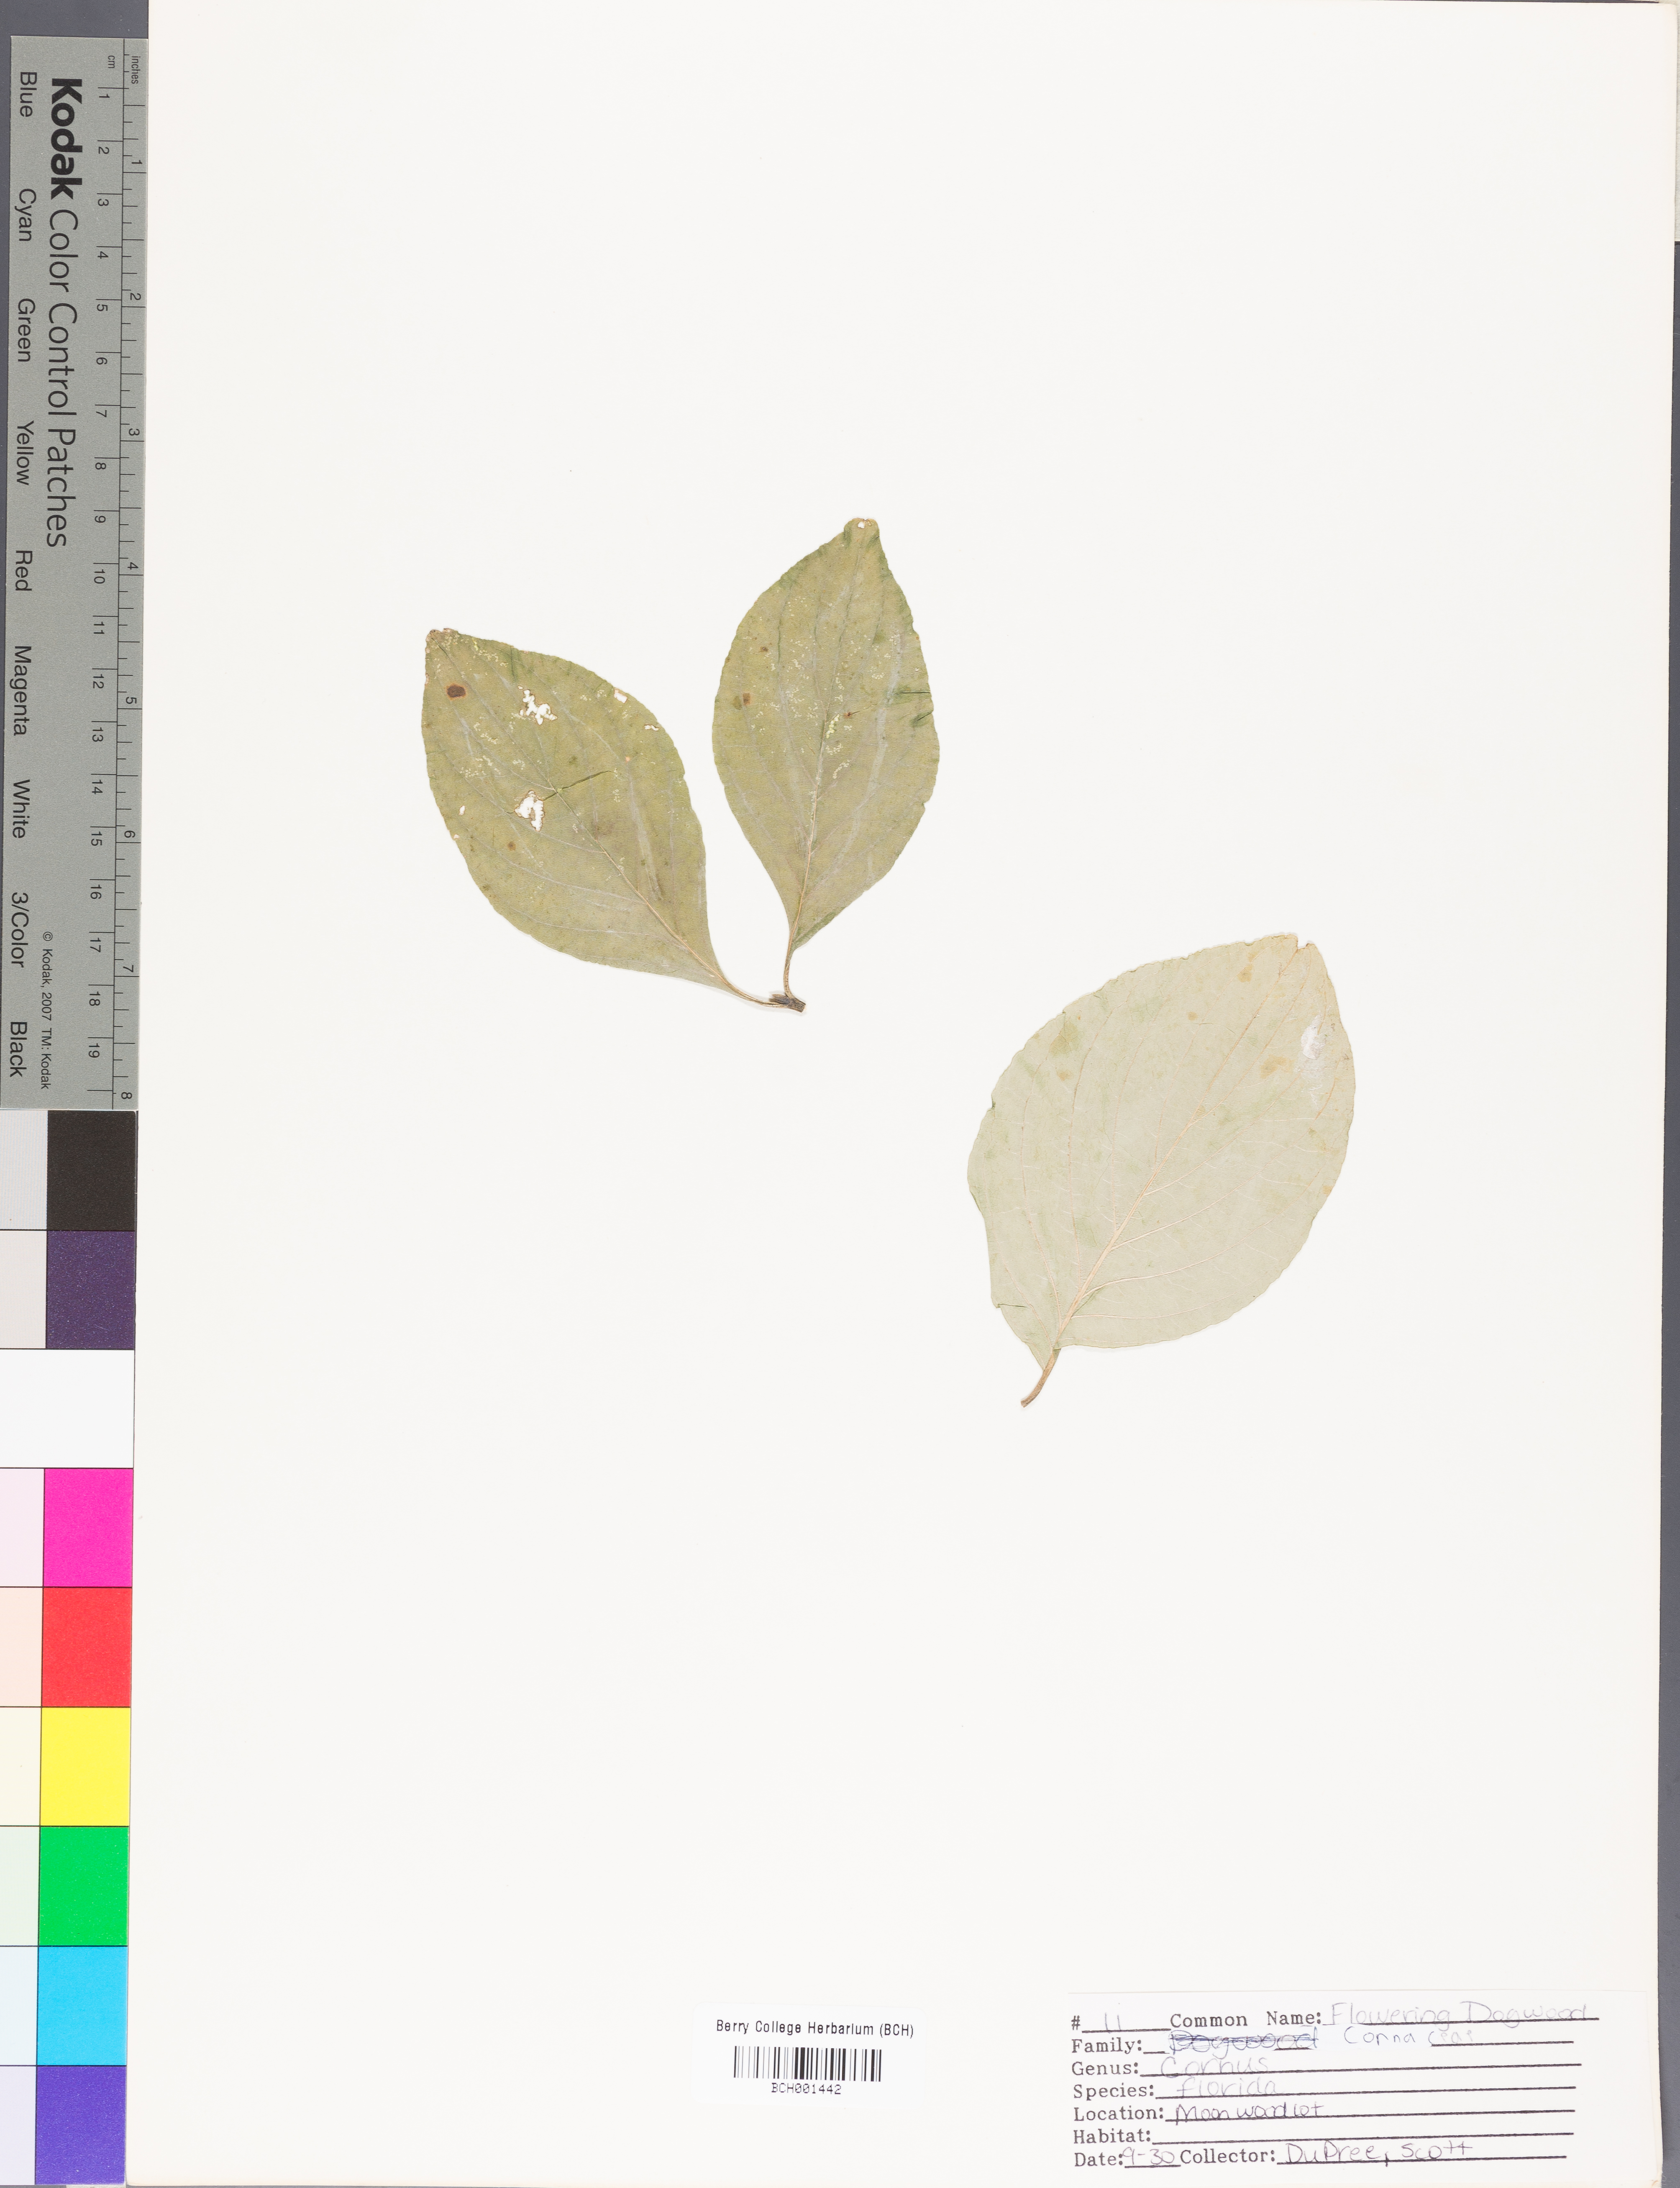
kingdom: Plantae
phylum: Tracheophyta
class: Magnoliopsida
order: Cornales
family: Cornaceae
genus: Cornus
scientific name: Cornus florida
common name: Flowering dogwood
